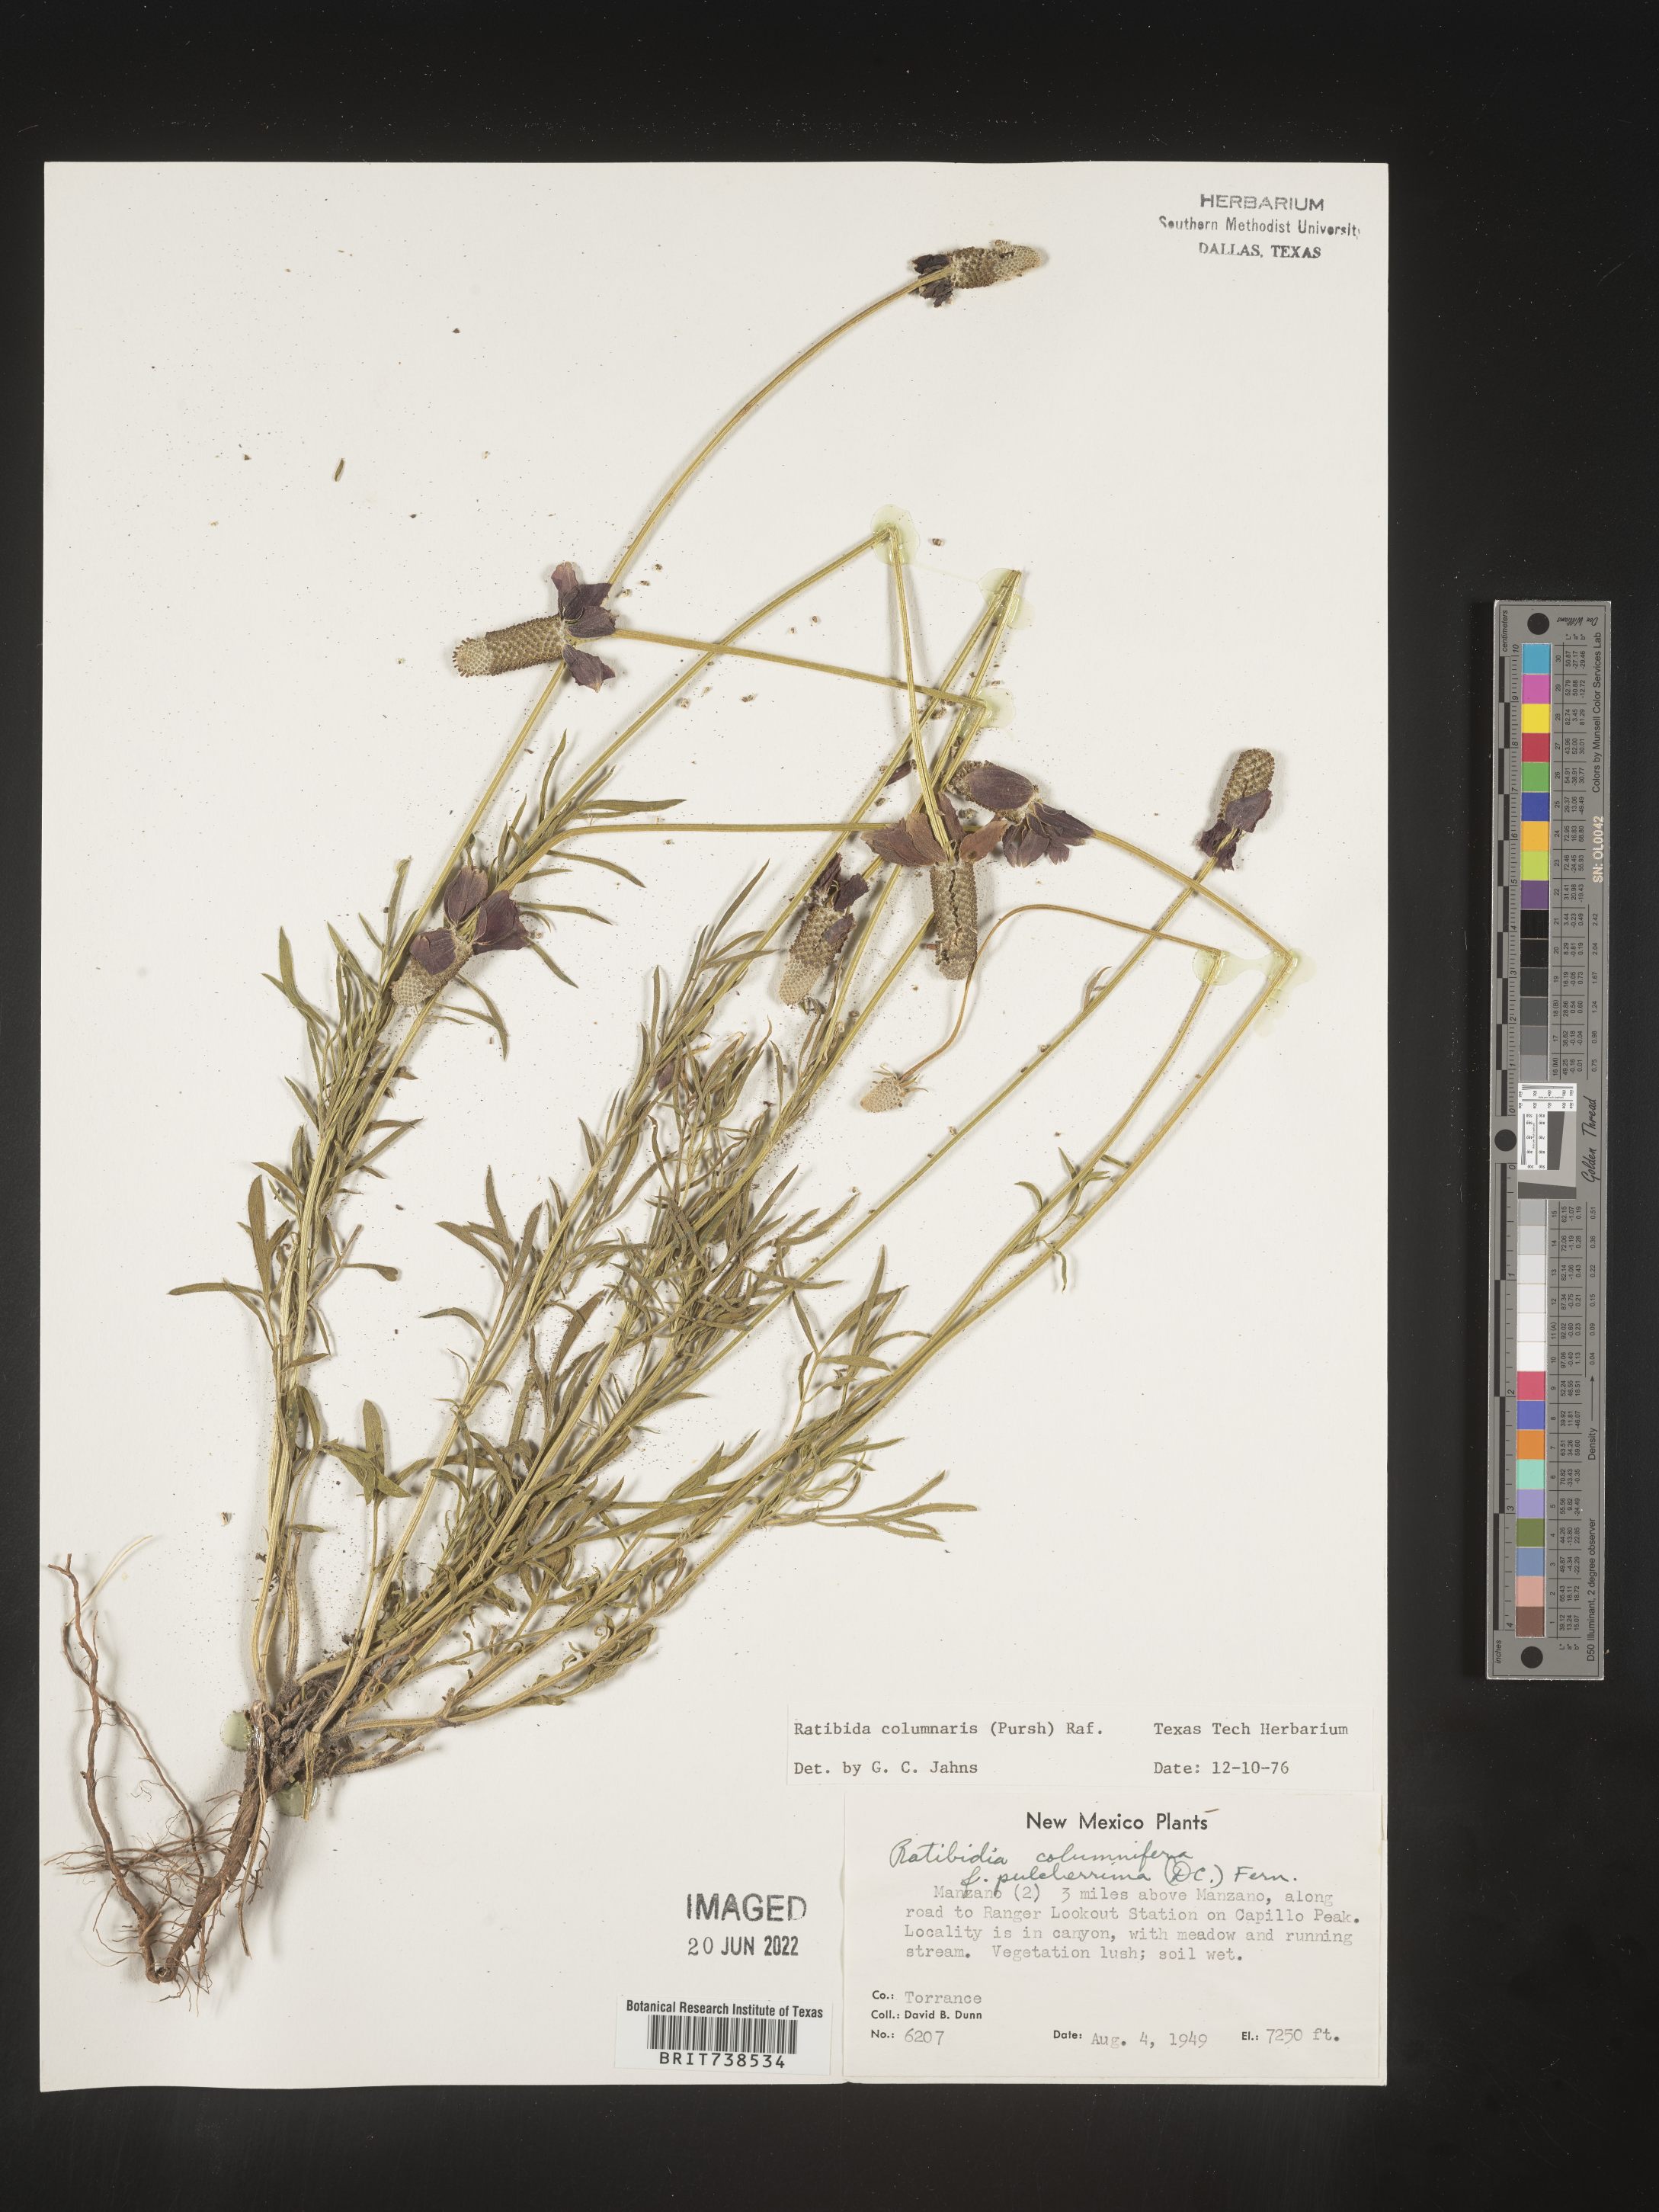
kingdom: Plantae
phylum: Tracheophyta
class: Magnoliopsida
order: Asterales
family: Asteraceae
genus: Ratibida
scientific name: Ratibida columnifera
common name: Prairie coneflower
